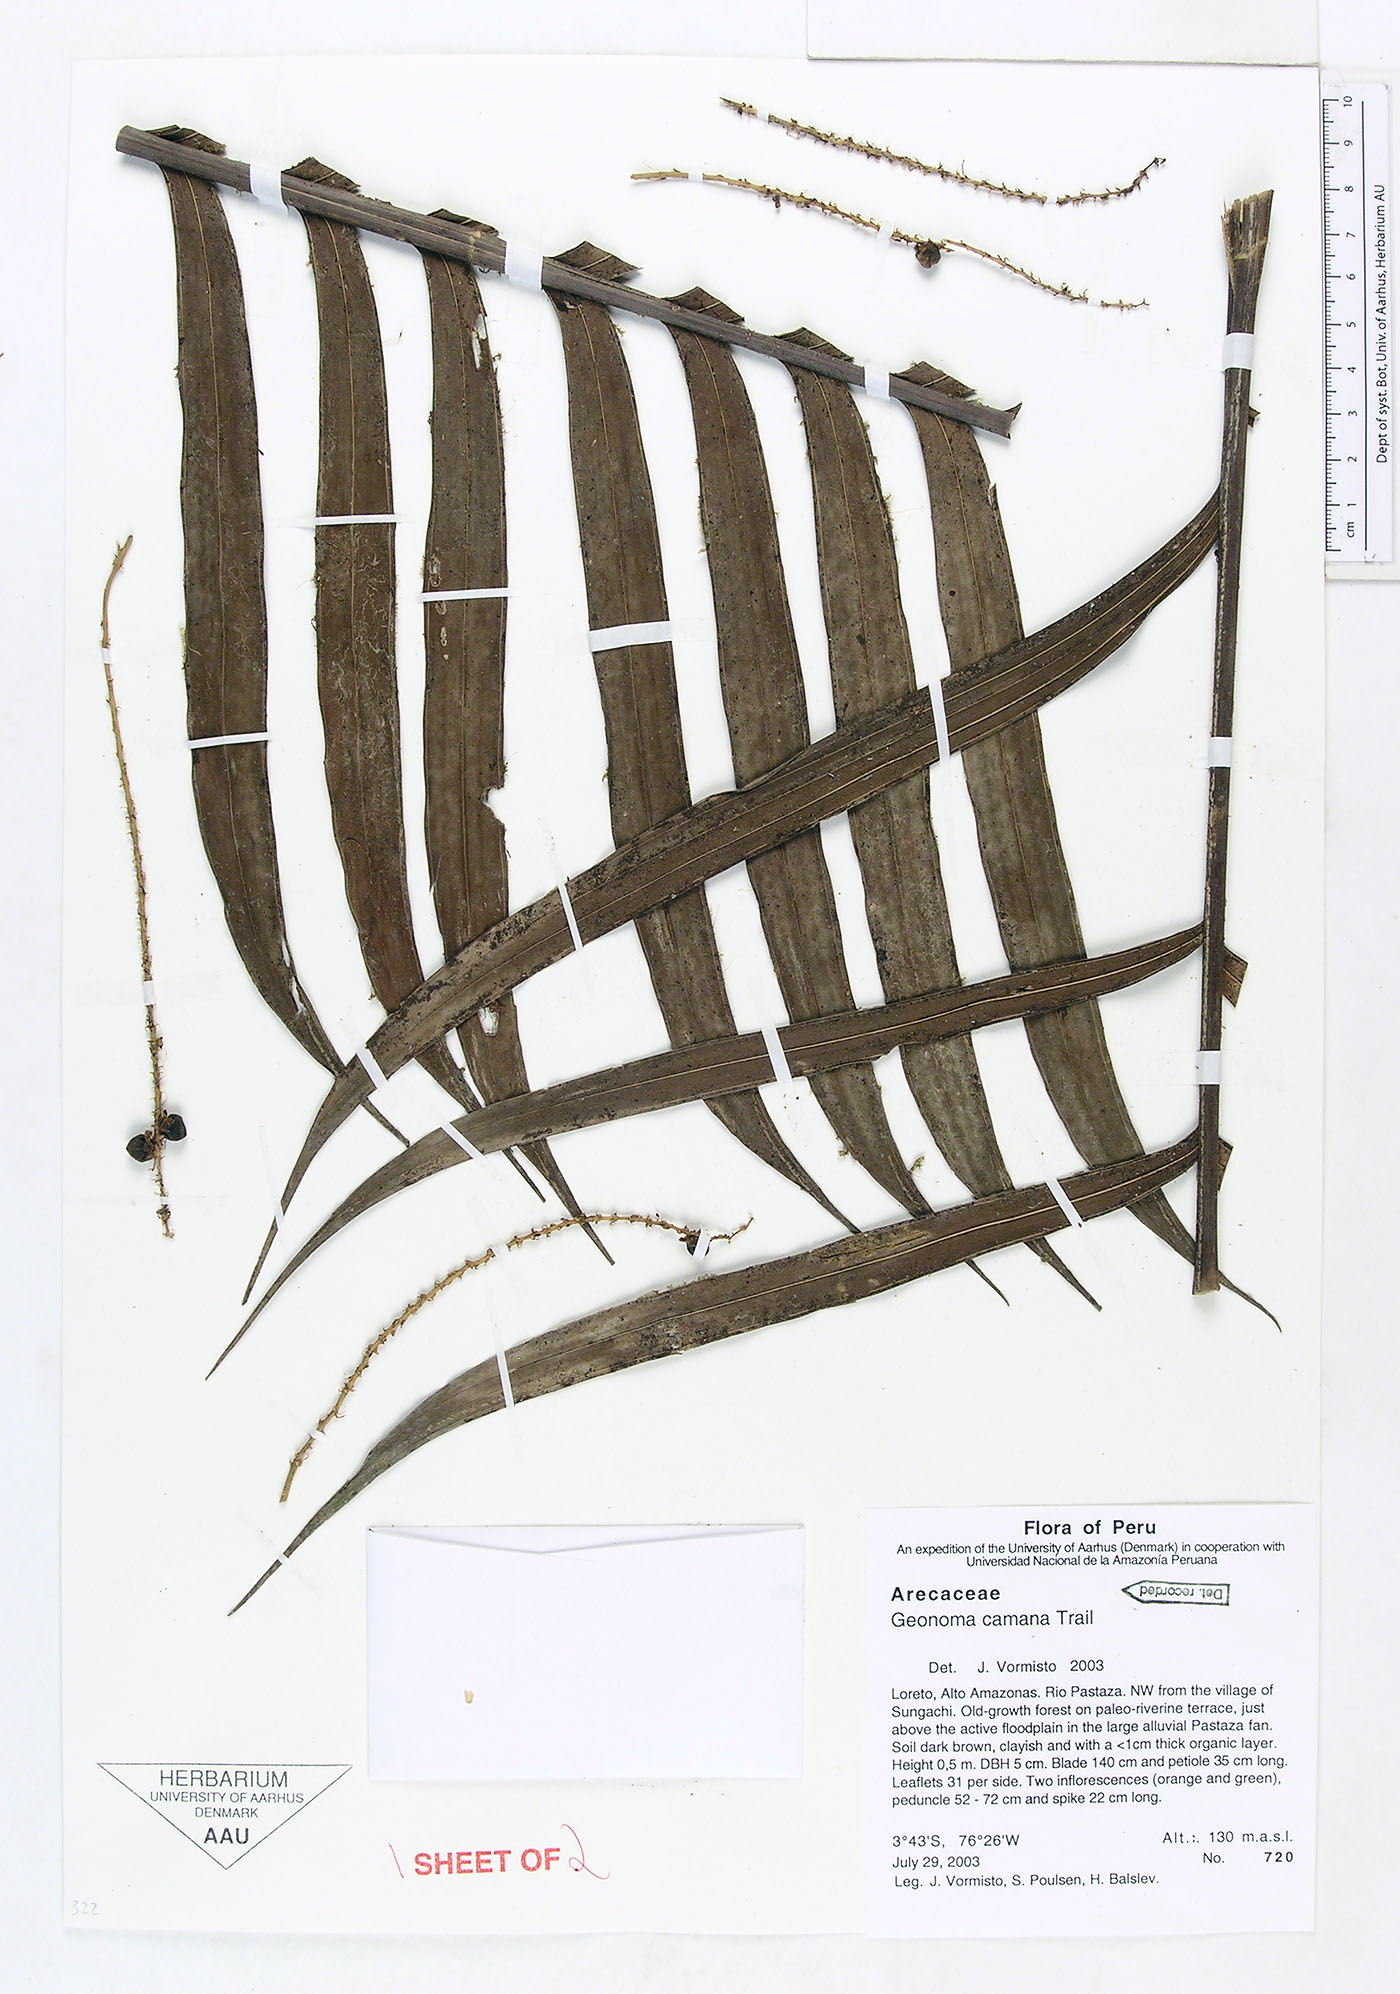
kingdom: Plantae
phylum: Tracheophyta
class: Liliopsida
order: Arecales
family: Arecaceae
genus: Geonoma
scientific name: Geonoma camana
